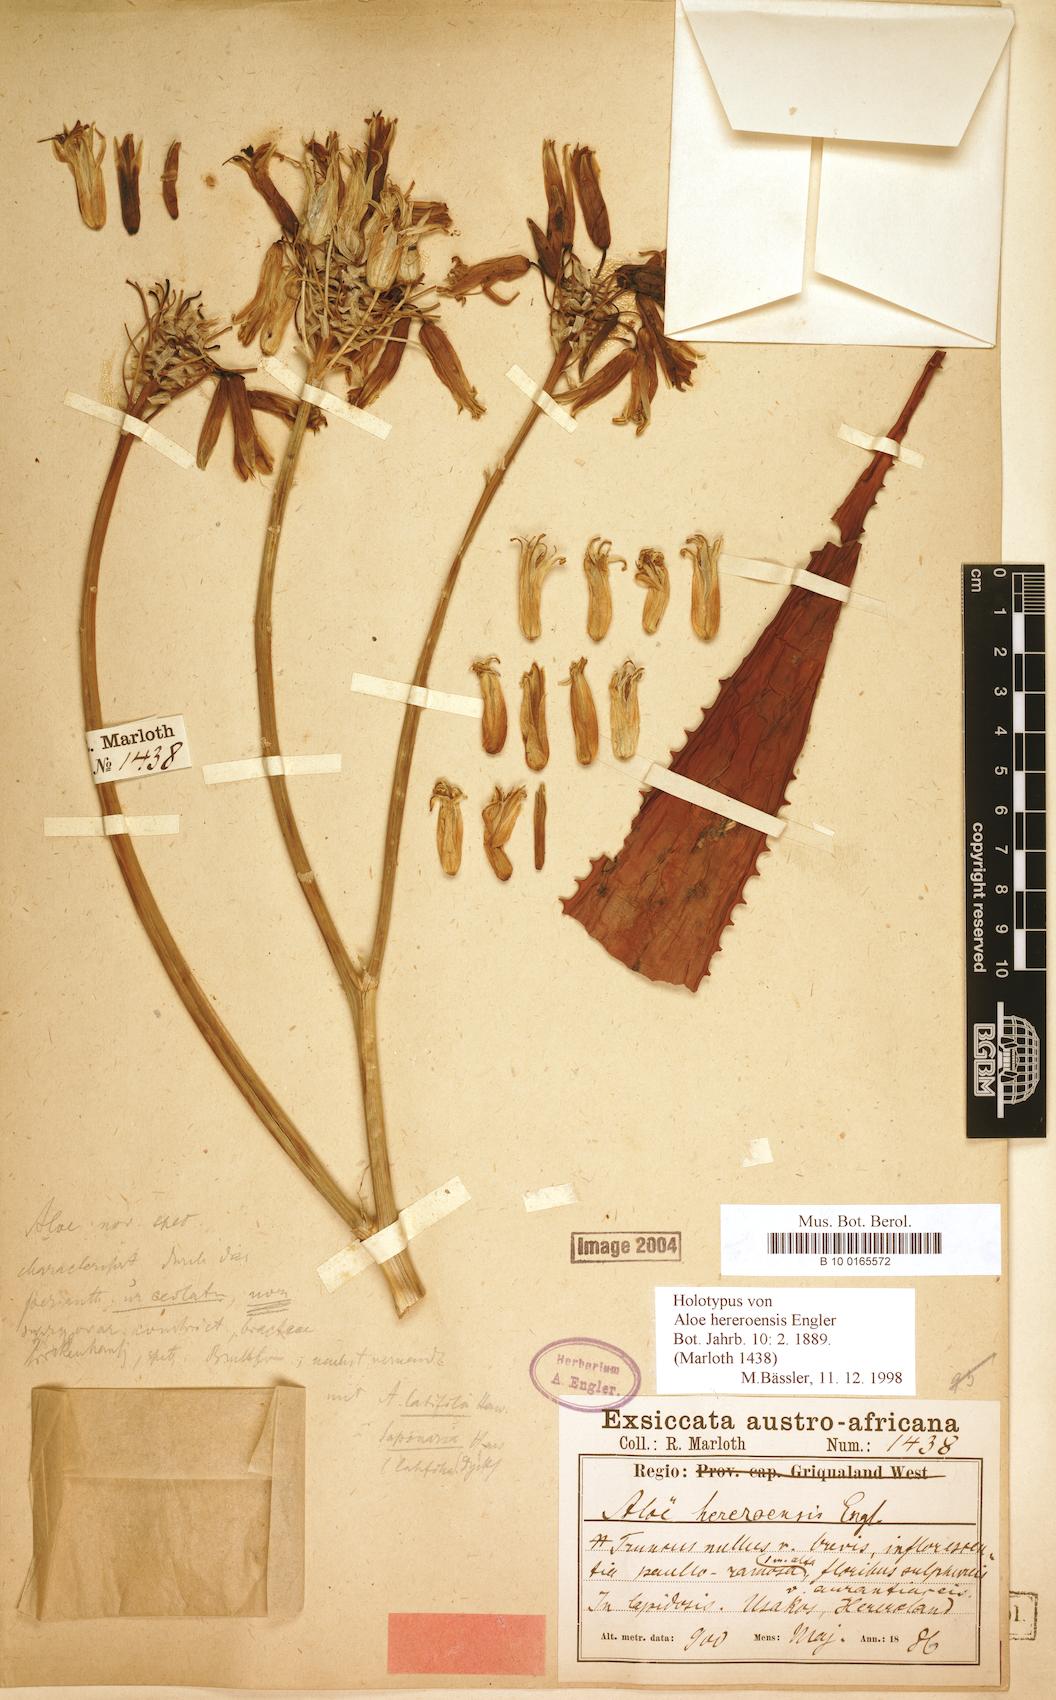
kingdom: Plantae
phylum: Tracheophyta
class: Liliopsida
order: Asparagales
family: Asphodelaceae
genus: Aloe
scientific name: Aloe hereroensis
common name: Herero aloe
